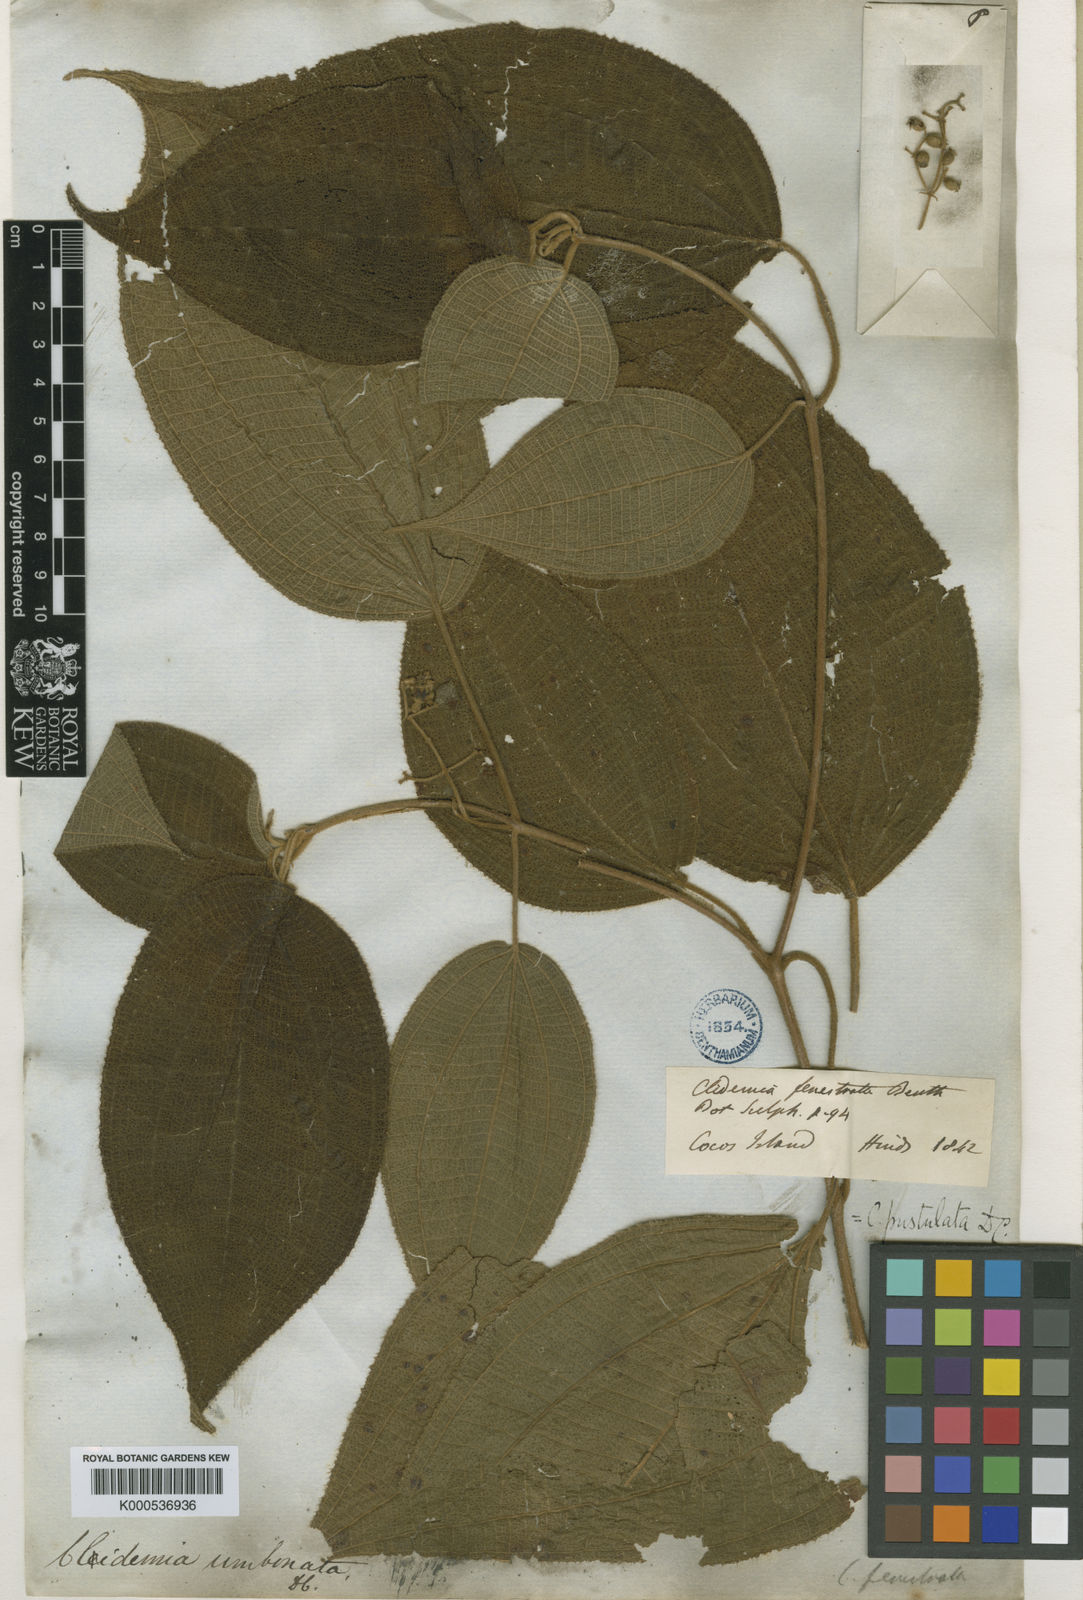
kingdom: Plantae
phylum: Tracheophyta
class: Magnoliopsida
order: Myrtales
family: Melastomataceae
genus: Miconia
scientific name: Miconia fenestrata
